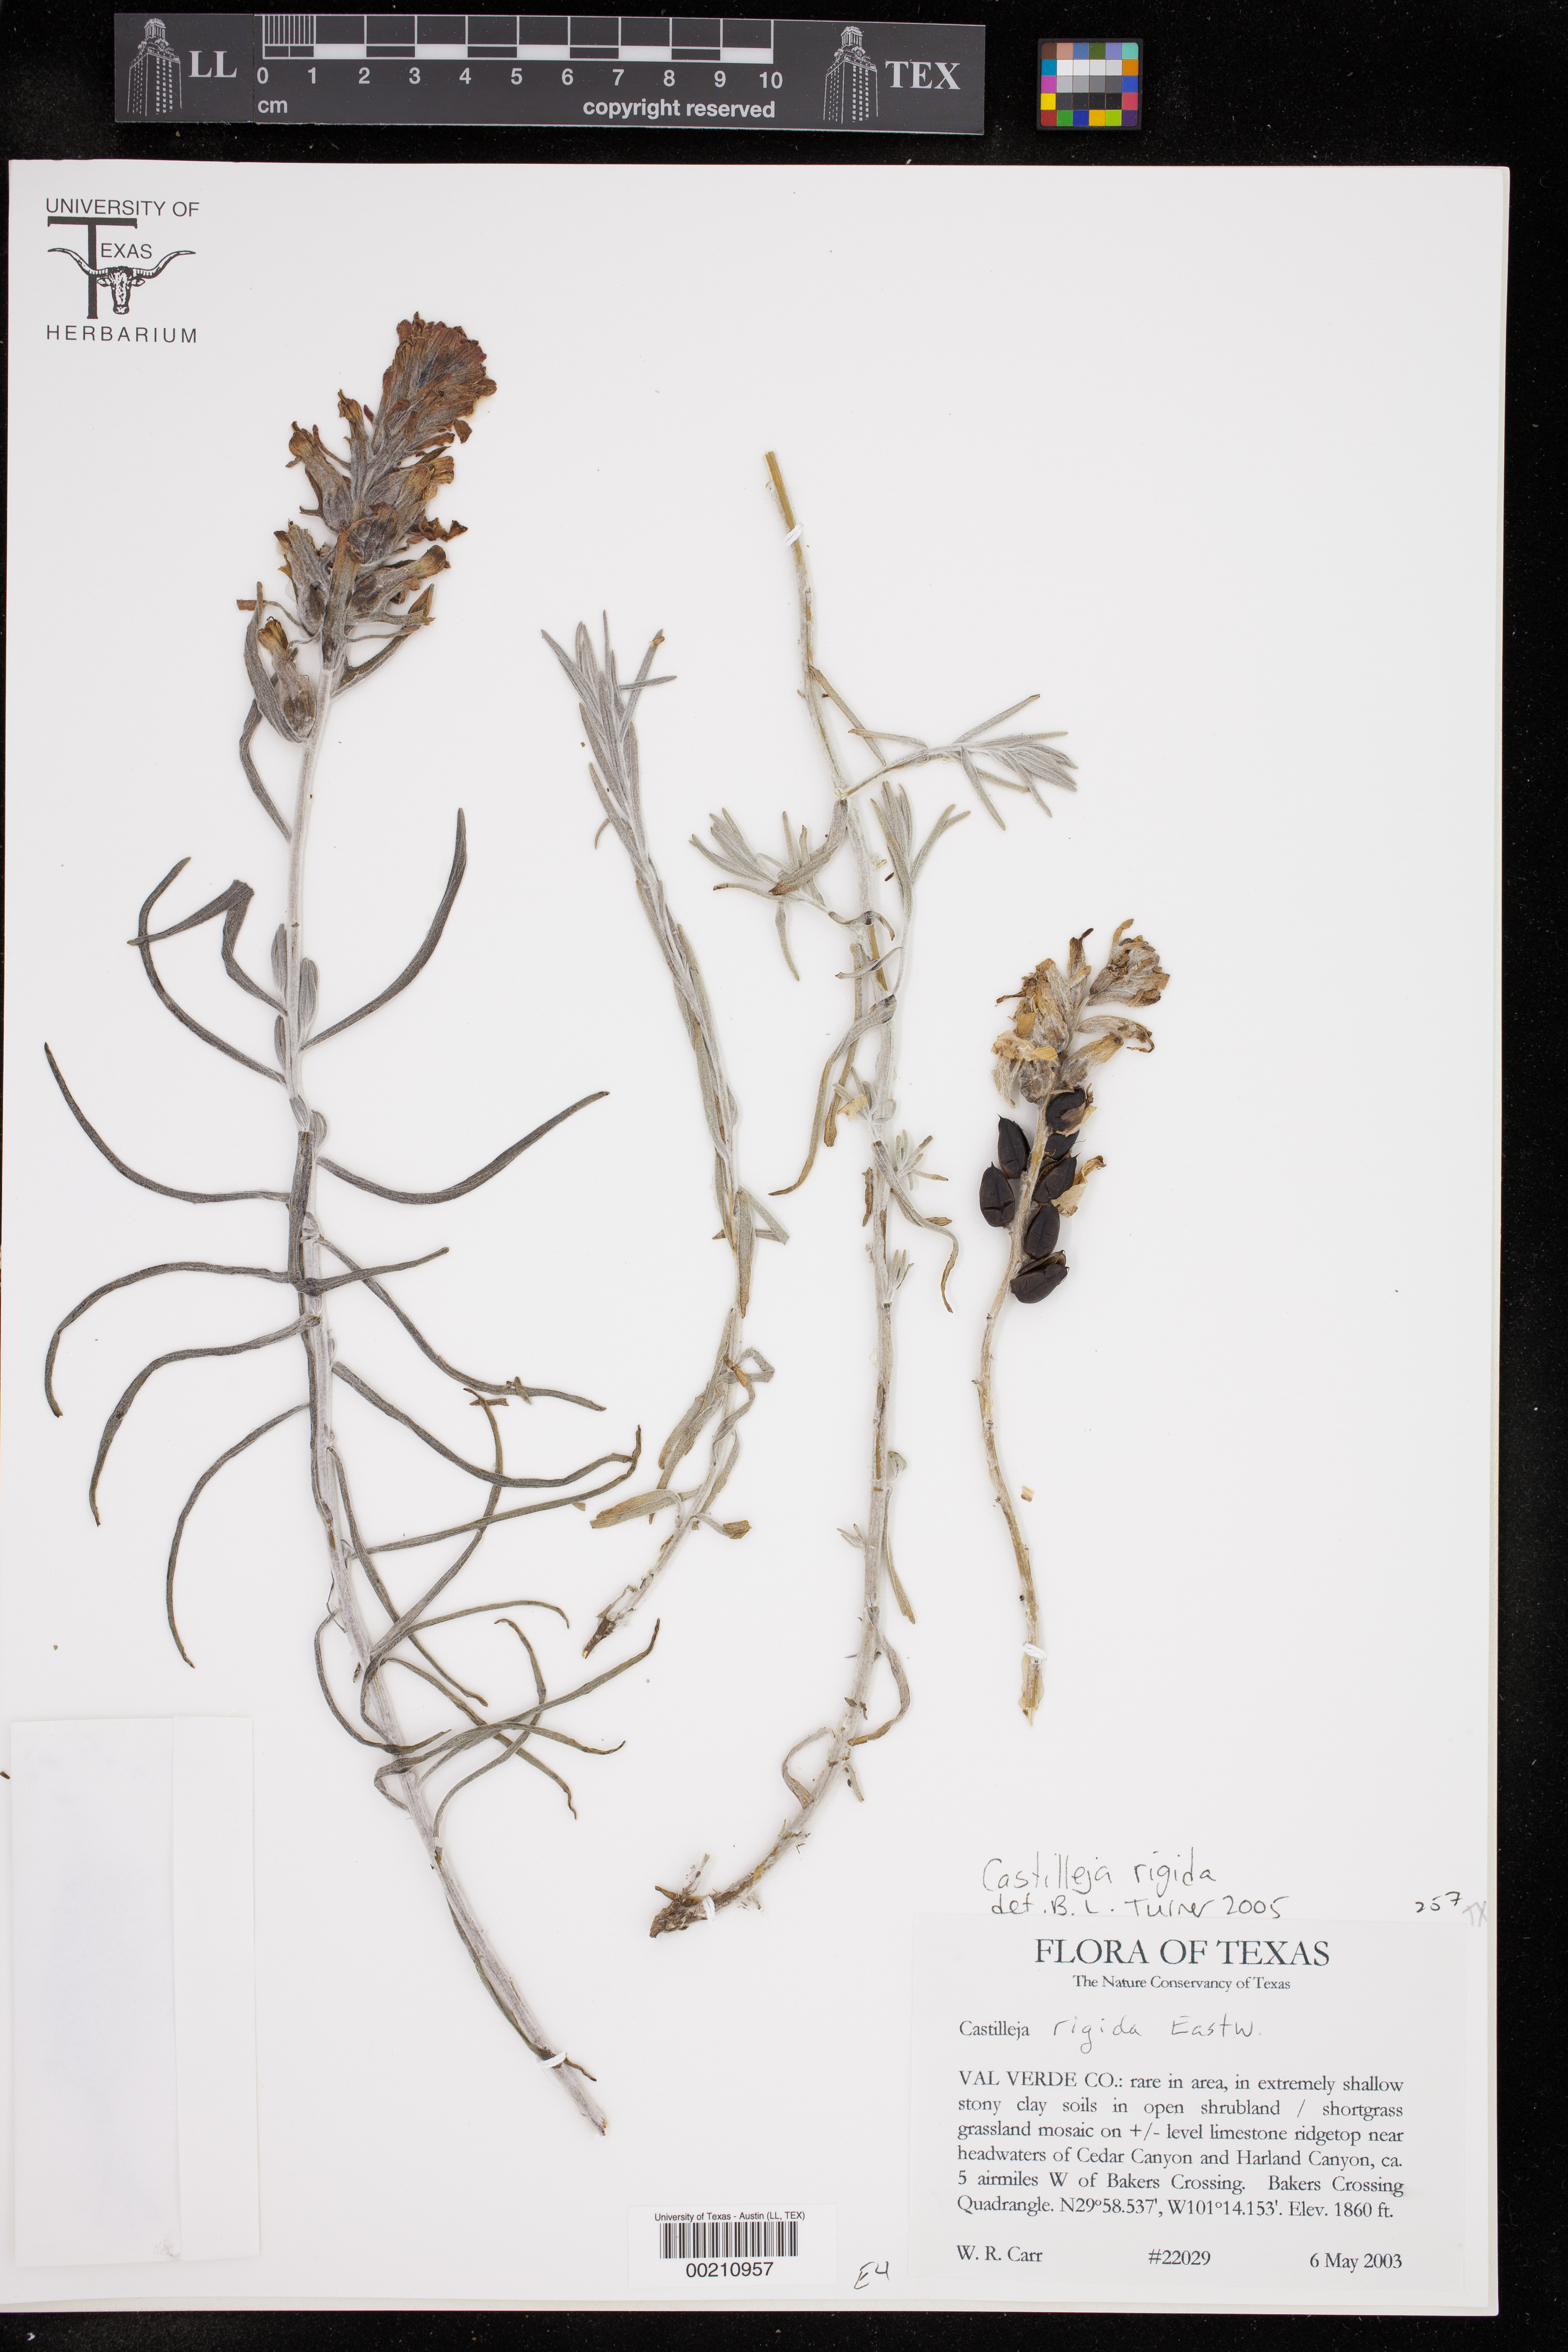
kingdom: Plantae
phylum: Tracheophyta
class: Magnoliopsida
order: Lamiales
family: Orobanchaceae
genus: Castilleja
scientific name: Castilleja rigida
